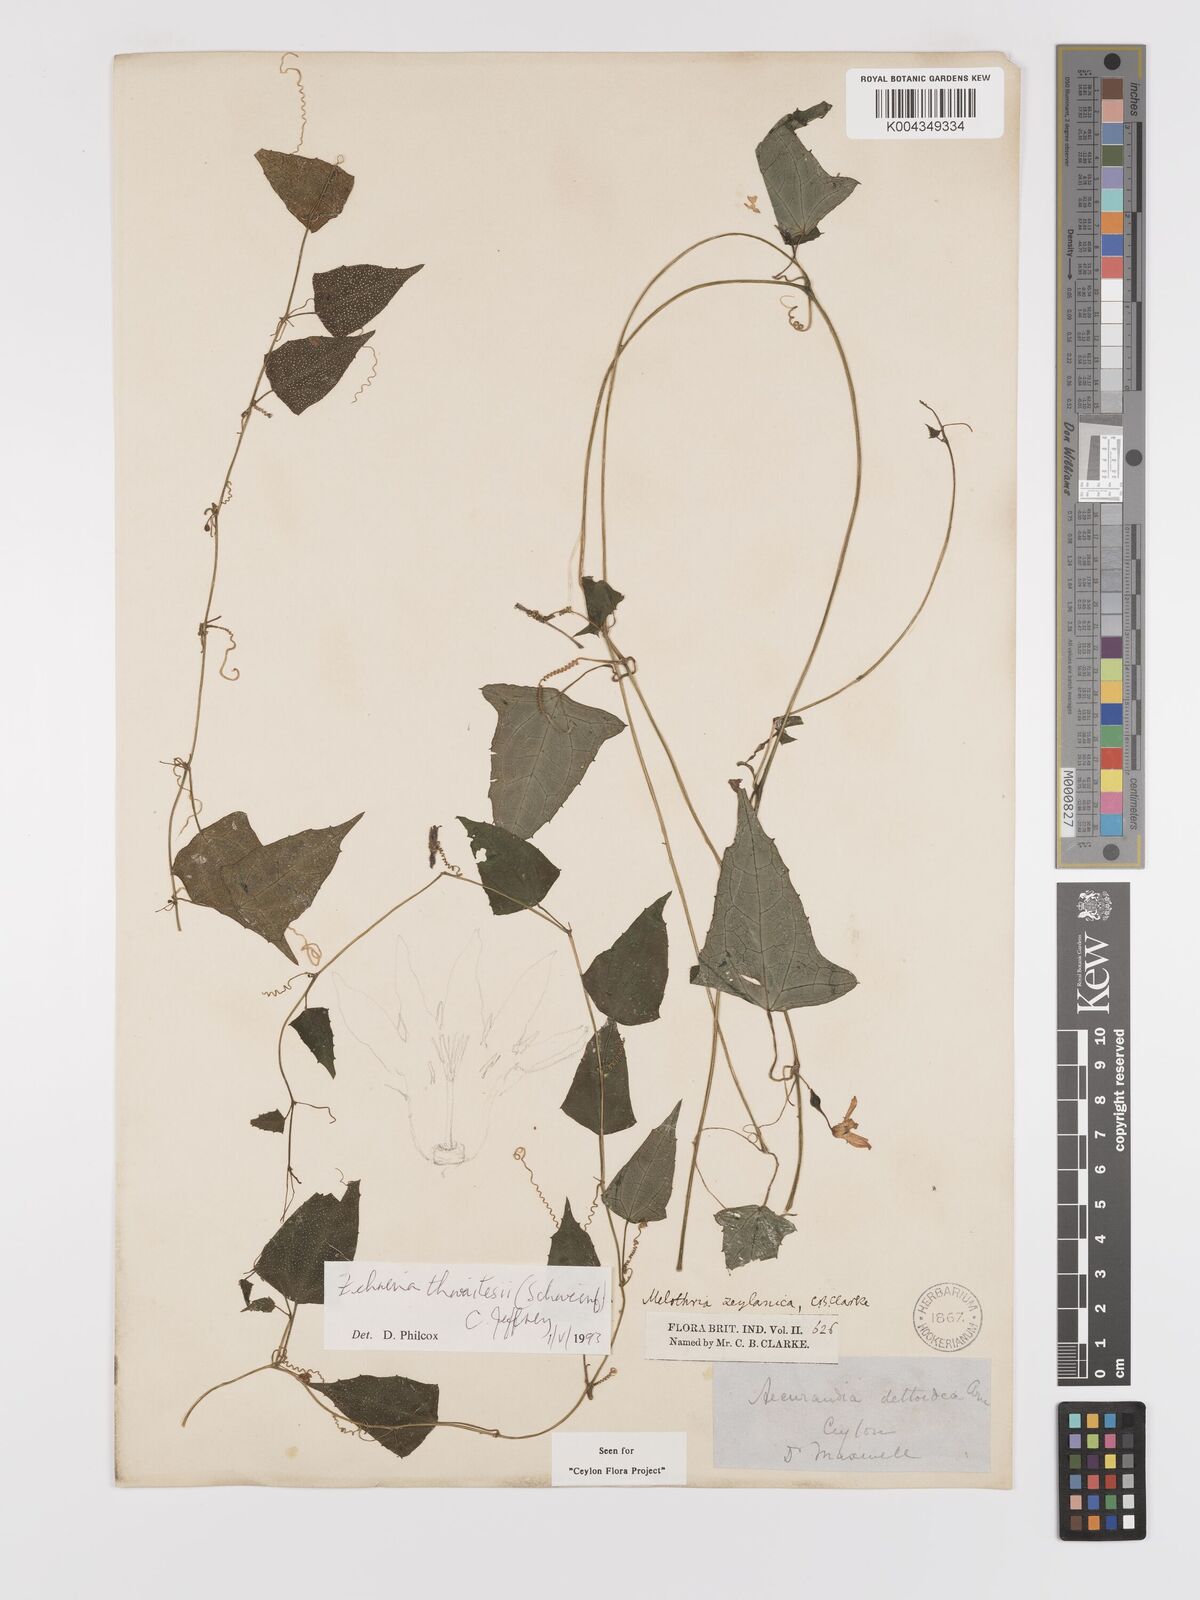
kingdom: Plantae
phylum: Tracheophyta
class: Magnoliopsida
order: Cucurbitales
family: Cucurbitaceae
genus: Zehneria
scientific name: Zehneria thwaitesii
